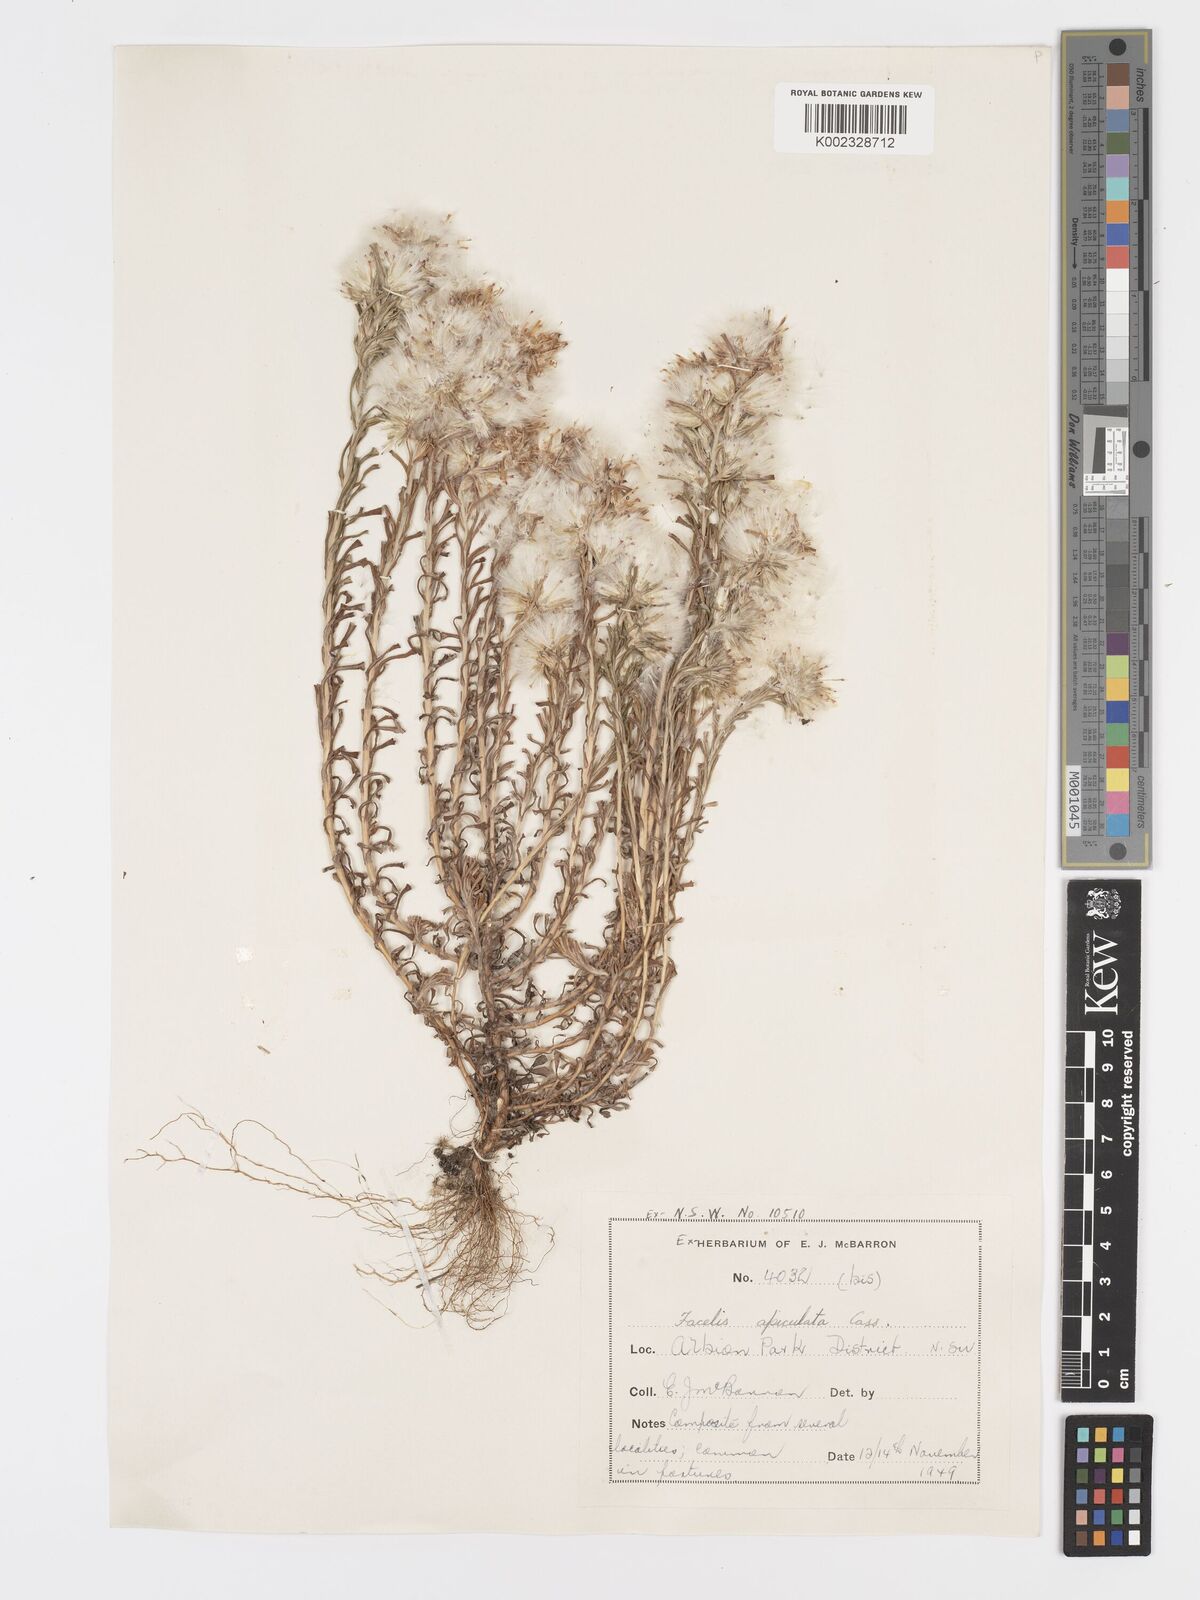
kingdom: Plantae
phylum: Tracheophyta
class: Magnoliopsida
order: Asterales
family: Asteraceae
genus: Facelis
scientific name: Facelis retusa
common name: Annual trampweed
